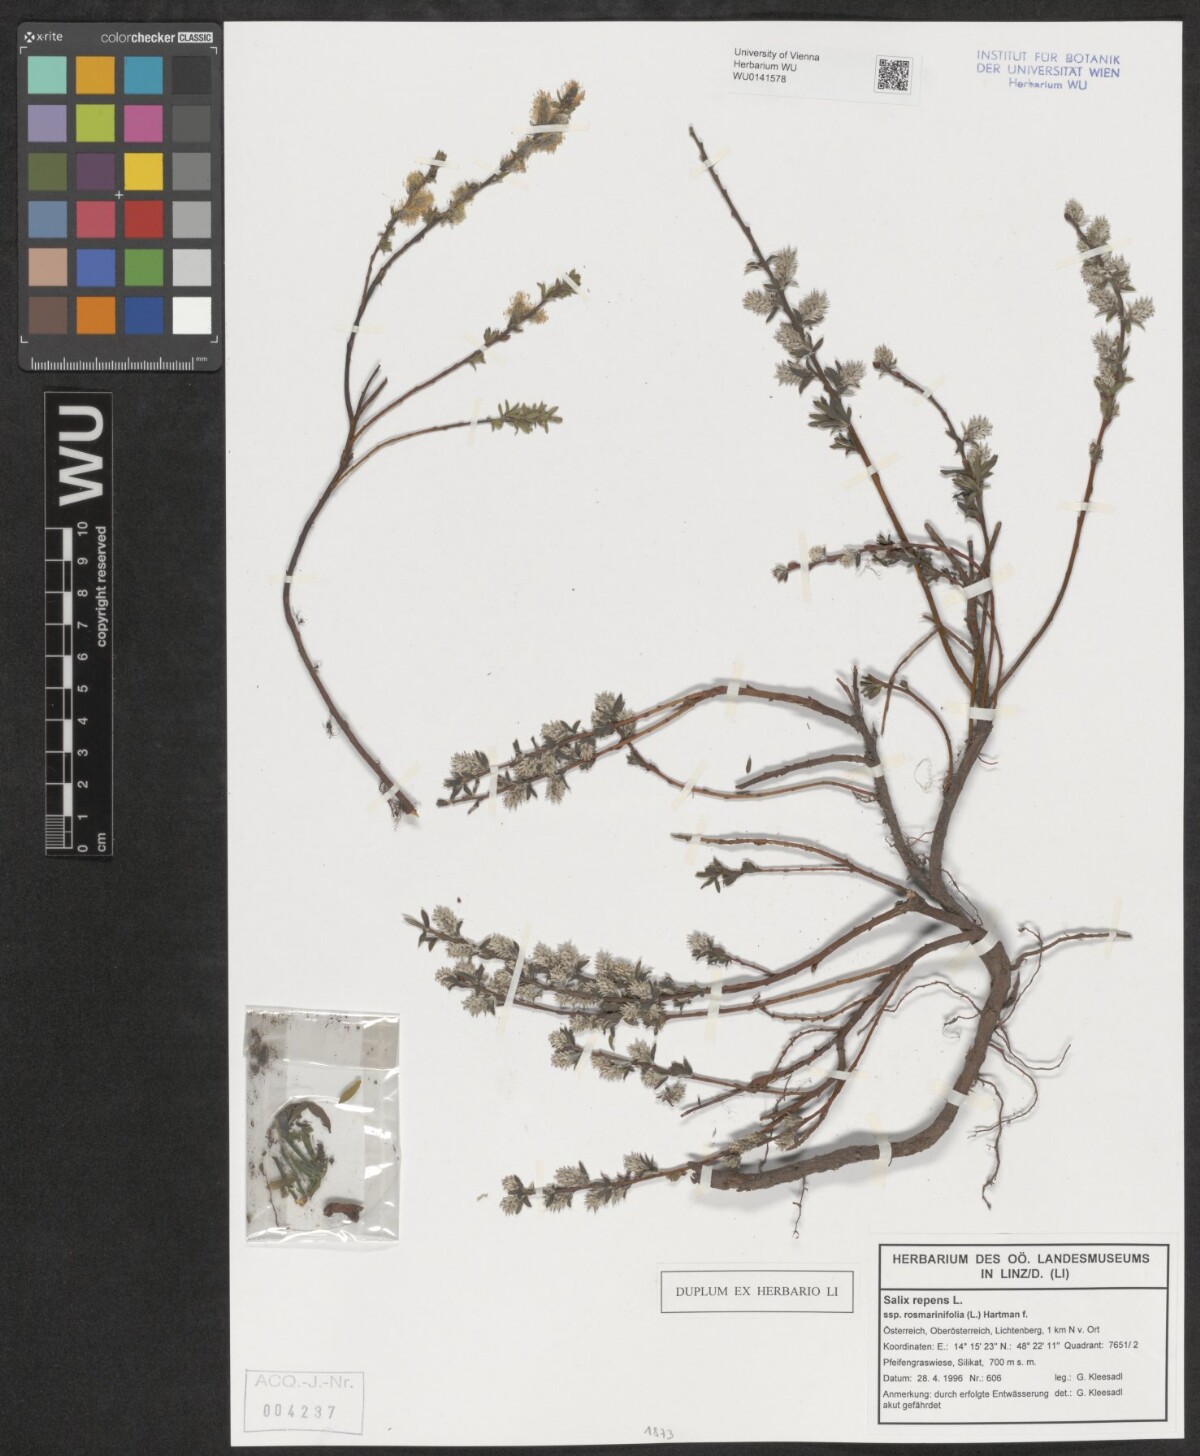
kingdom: Plantae
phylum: Tracheophyta
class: Magnoliopsida
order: Malpighiales
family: Salicaceae
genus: Salix
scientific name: Salix repens
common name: Creeping willow
